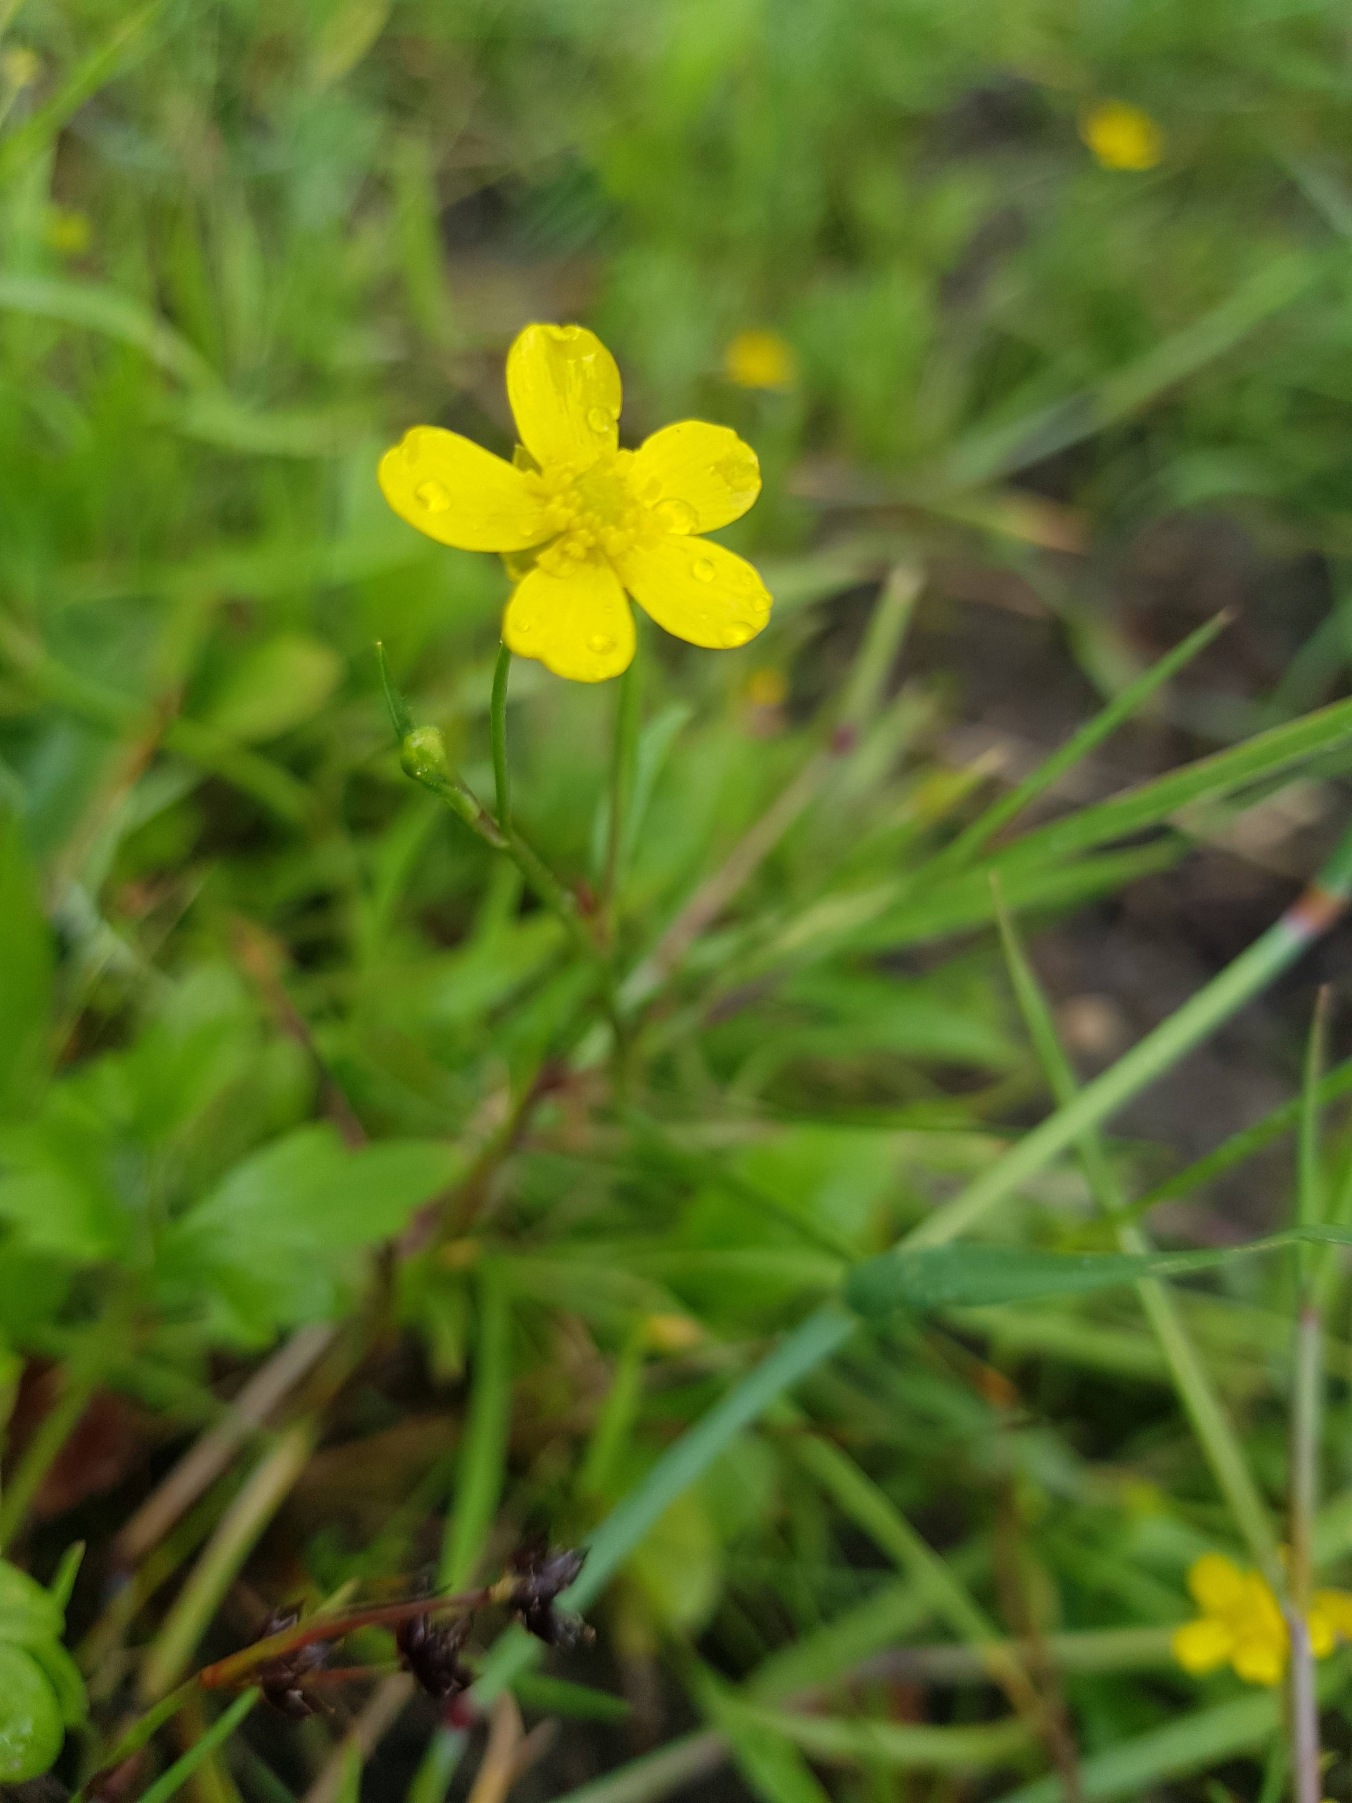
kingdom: Plantae
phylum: Tracheophyta
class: Magnoliopsida
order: Ranunculales
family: Ranunculaceae
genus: Ranunculus
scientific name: Ranunculus flammula
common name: Kær-ranunkel
